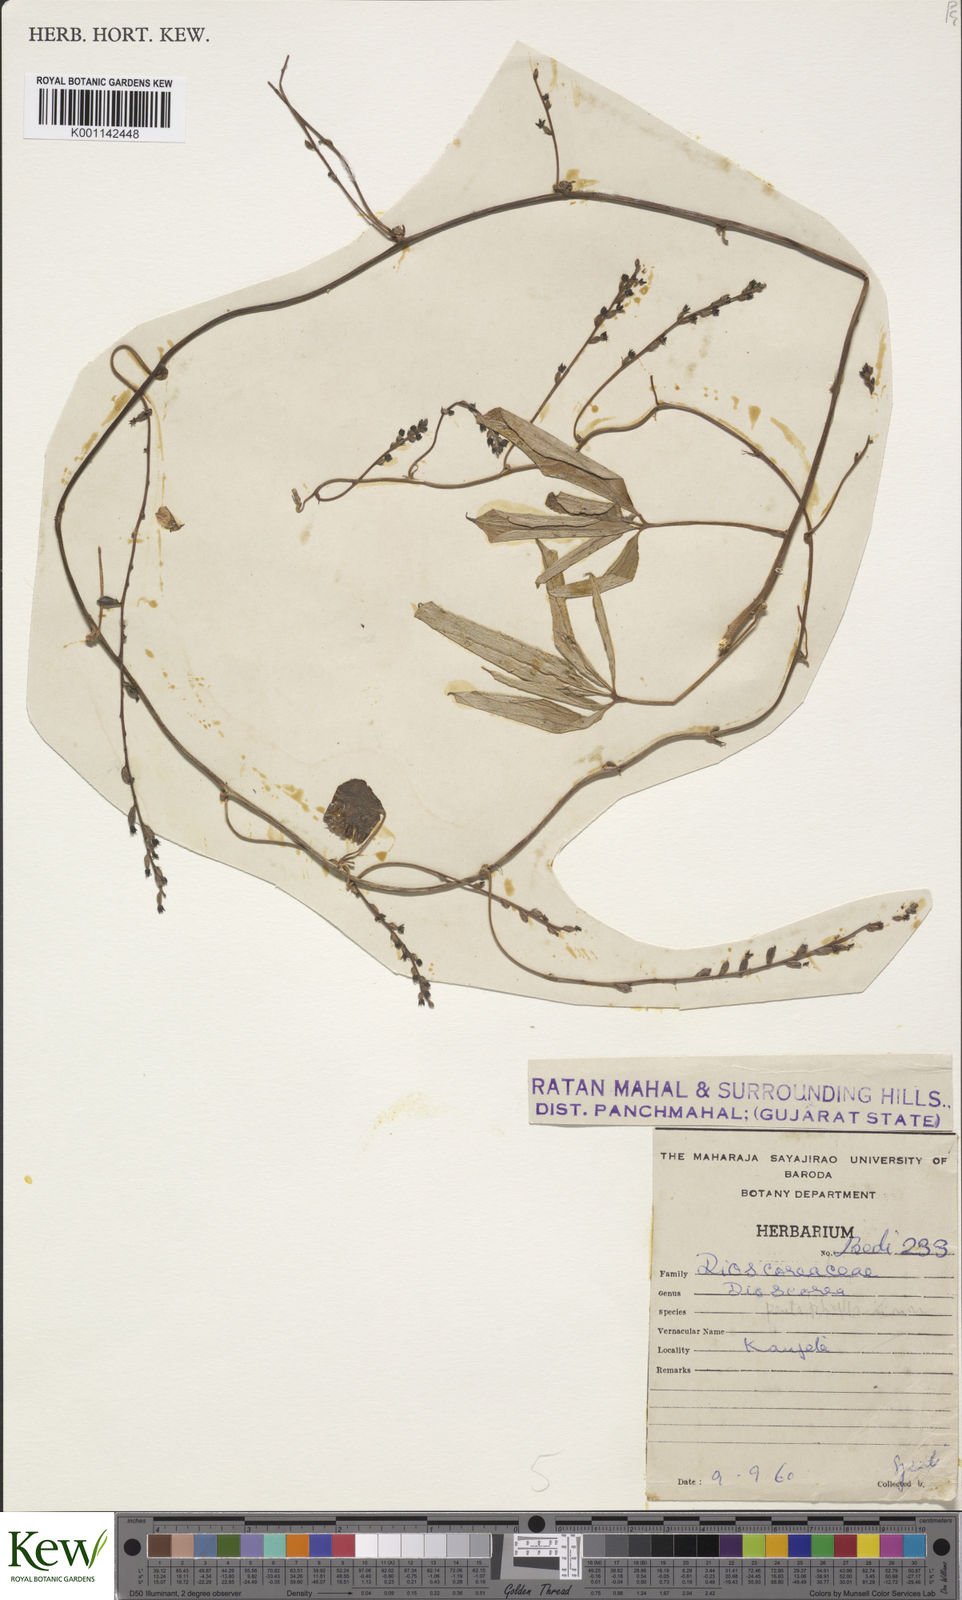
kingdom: Plantae
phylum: Tracheophyta
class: Liliopsida
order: Dioscoreales
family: Dioscoreaceae
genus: Dioscorea
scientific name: Dioscorea pentaphylla
